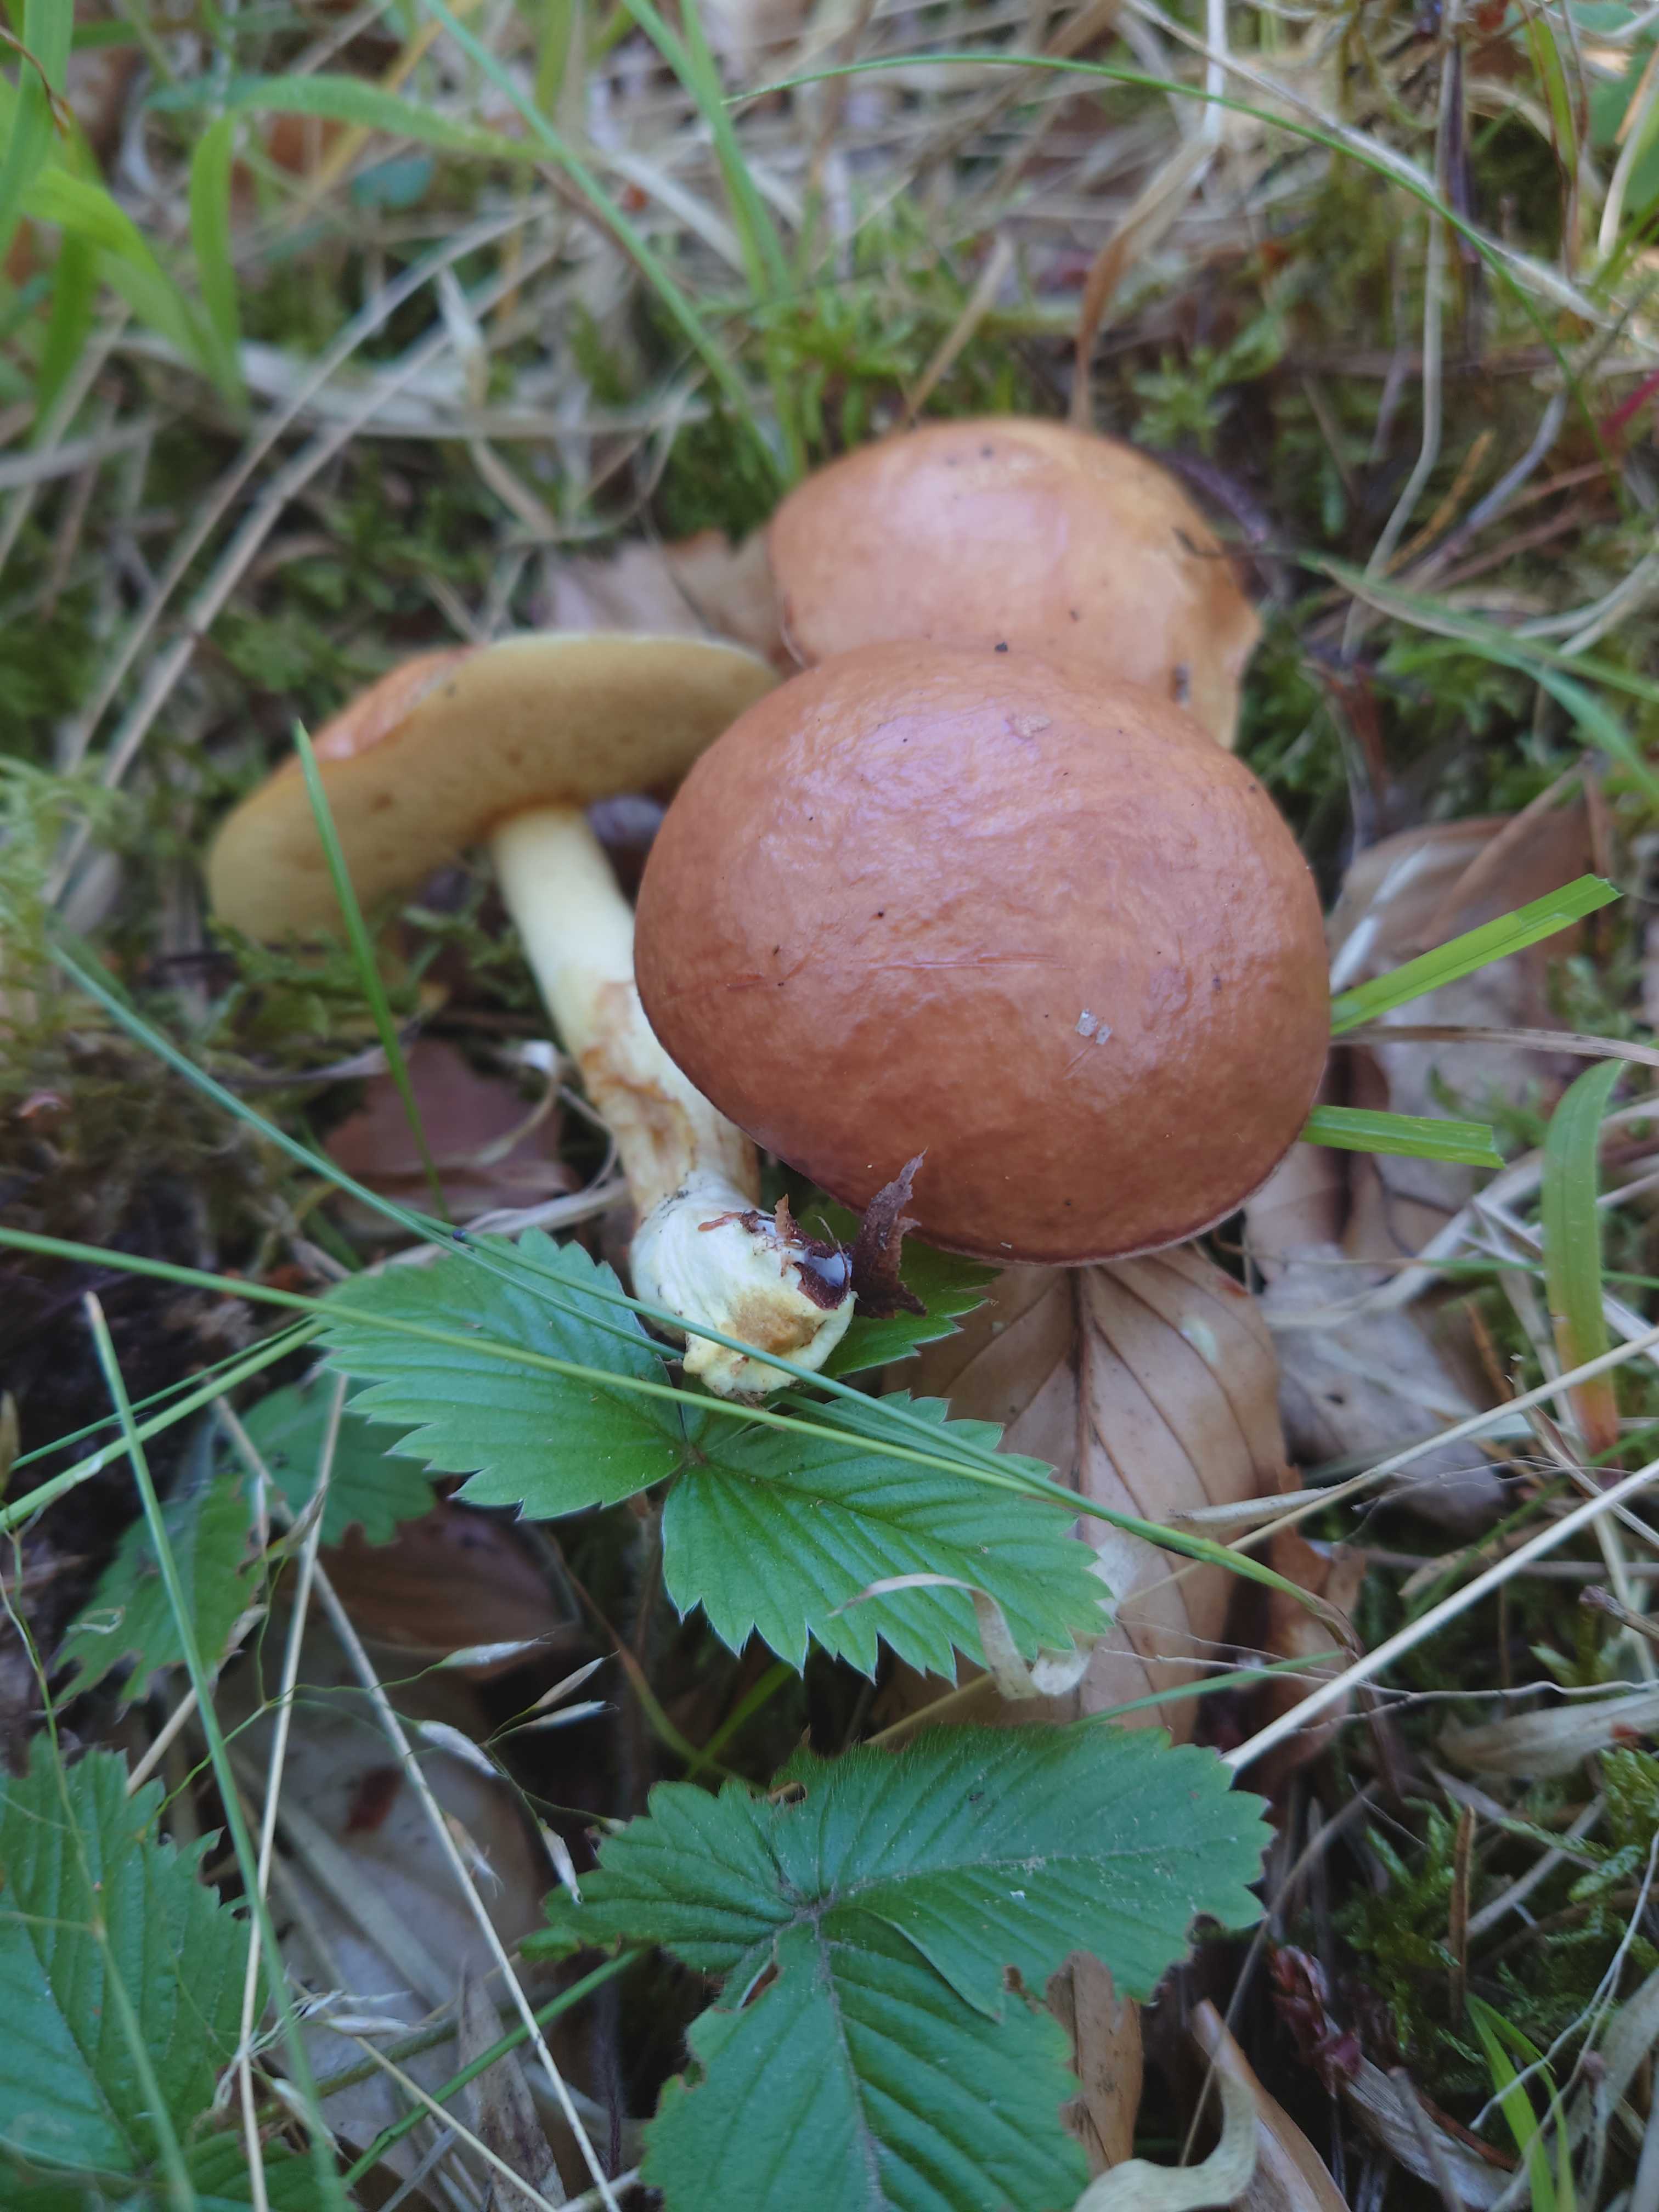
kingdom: Fungi
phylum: Basidiomycota
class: Agaricomycetes
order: Boletales
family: Suillaceae
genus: Suillus
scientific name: Suillus granulatus
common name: kornet slimrørhat
